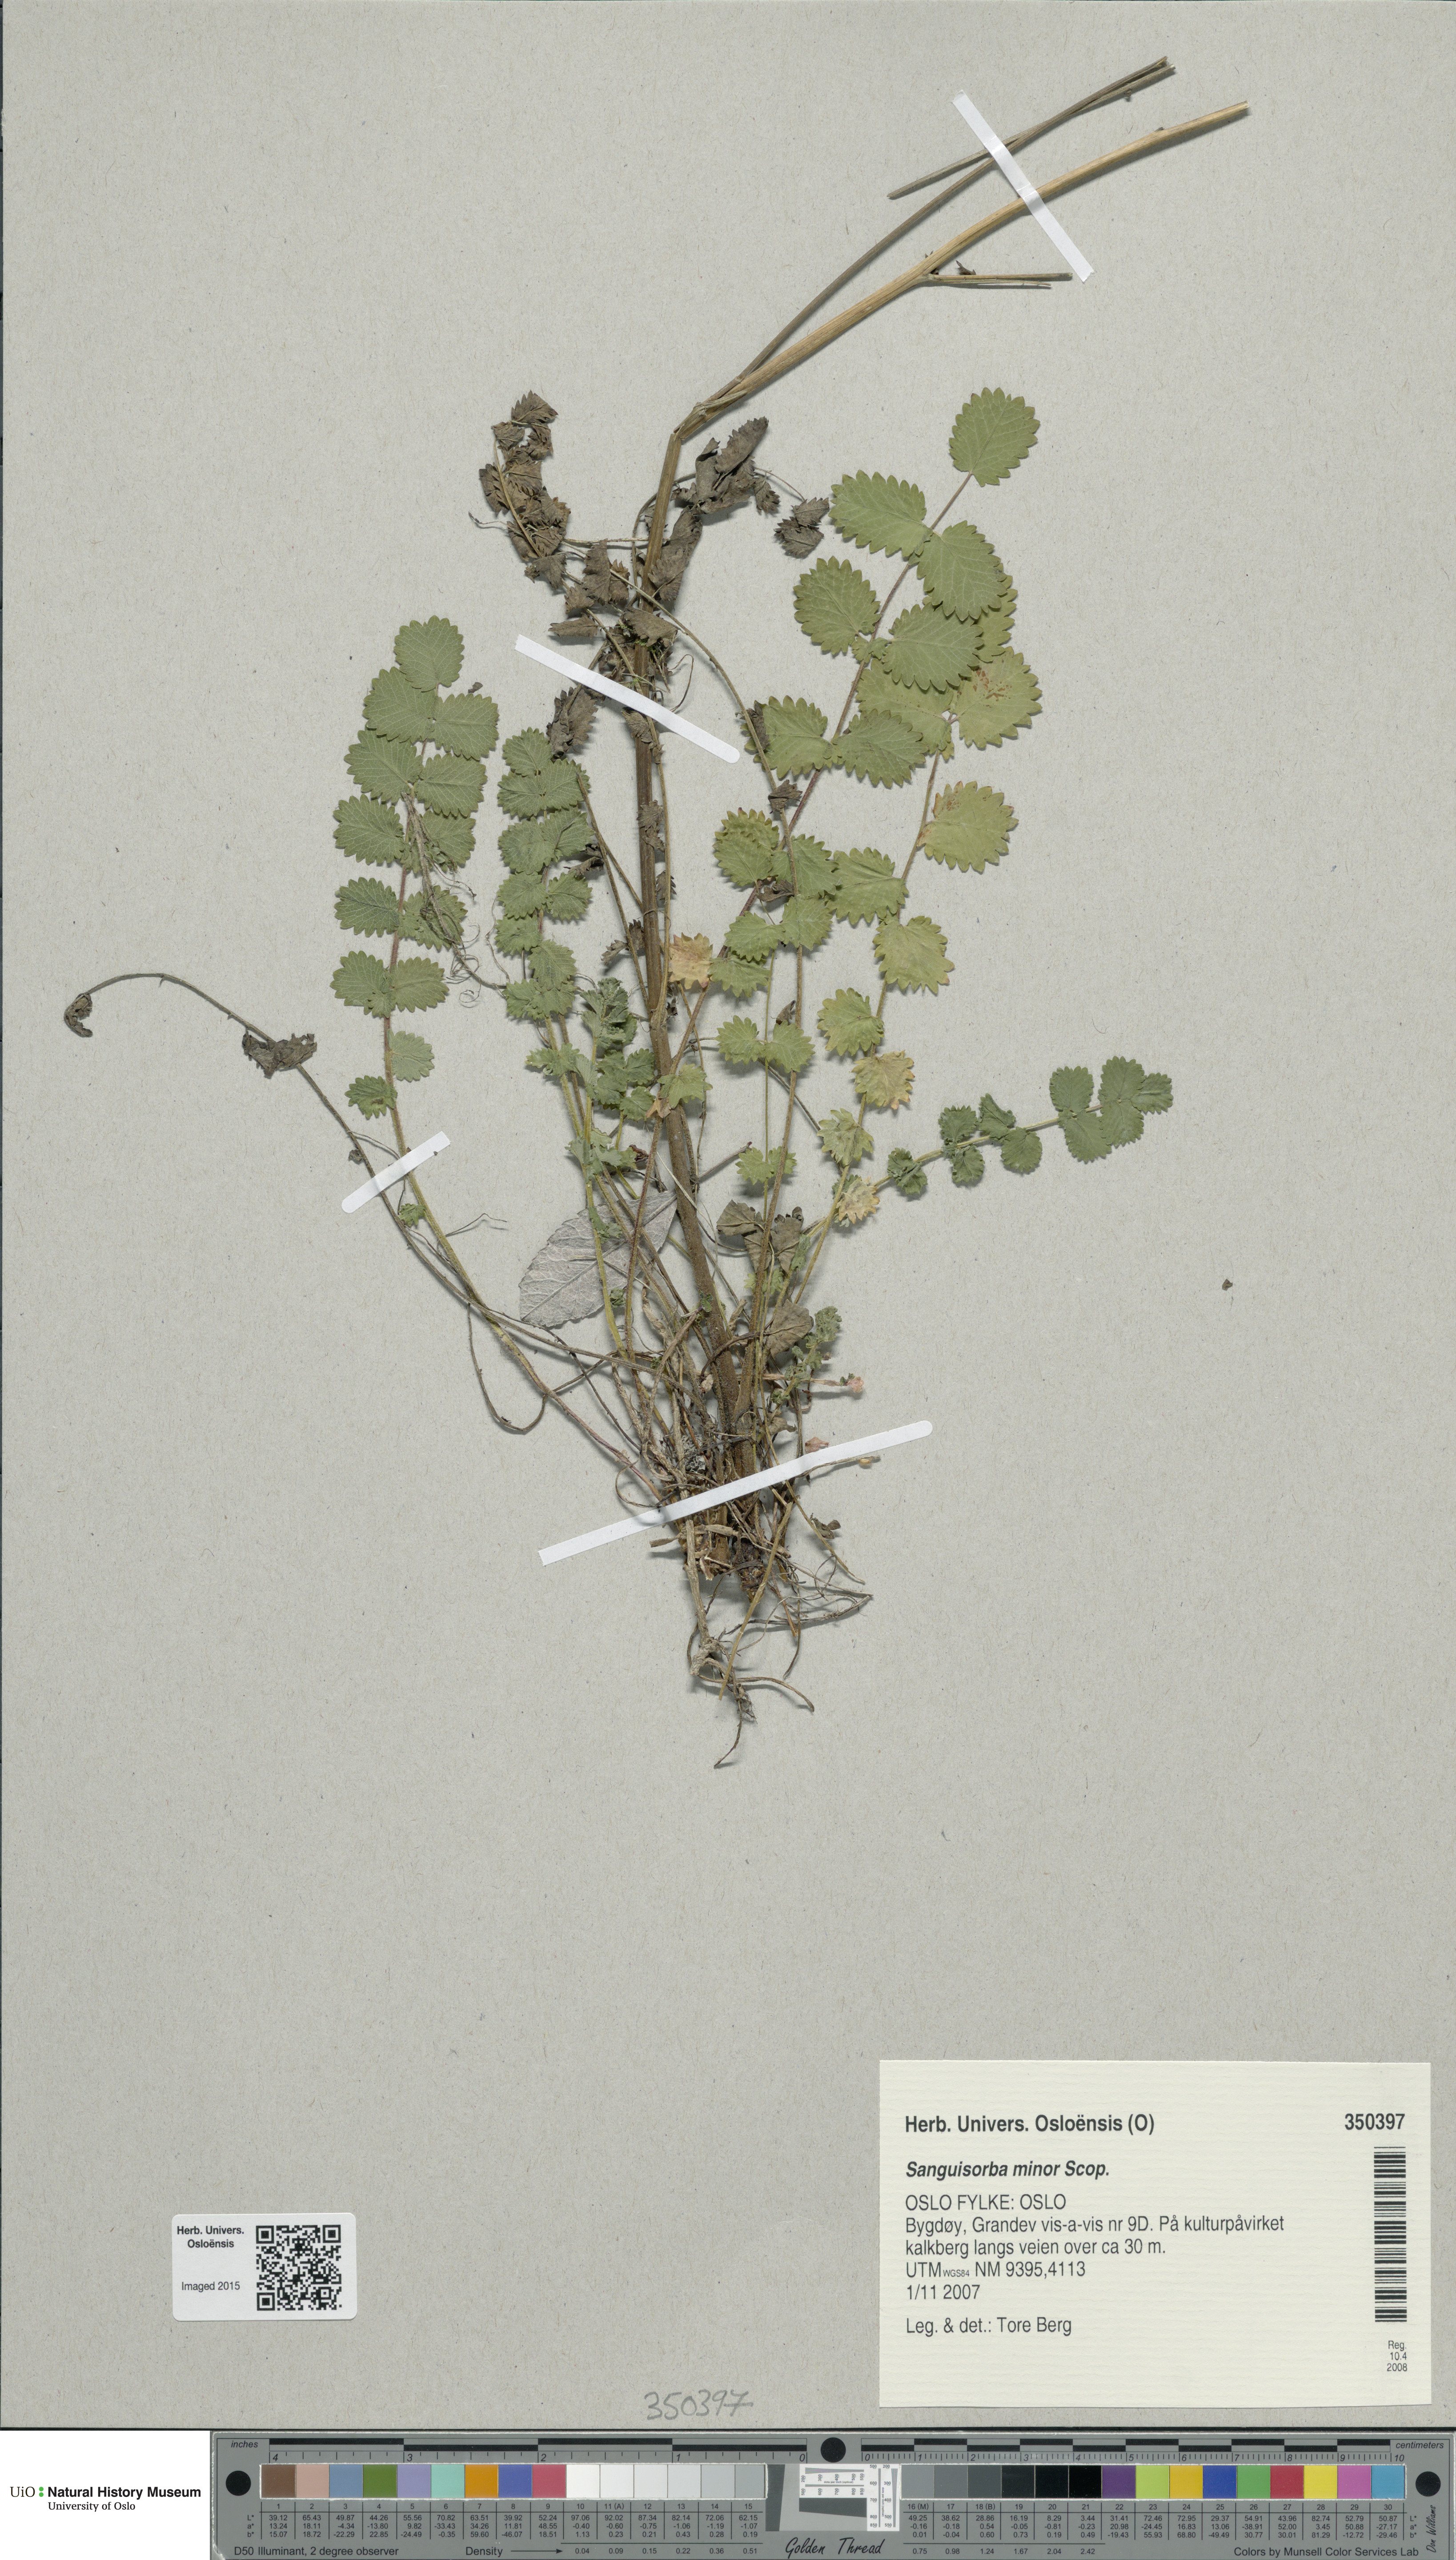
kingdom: Plantae
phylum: Tracheophyta
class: Magnoliopsida
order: Rosales
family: Rosaceae
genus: Poterium
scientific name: Poterium sanguisorba
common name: Salad burnet
